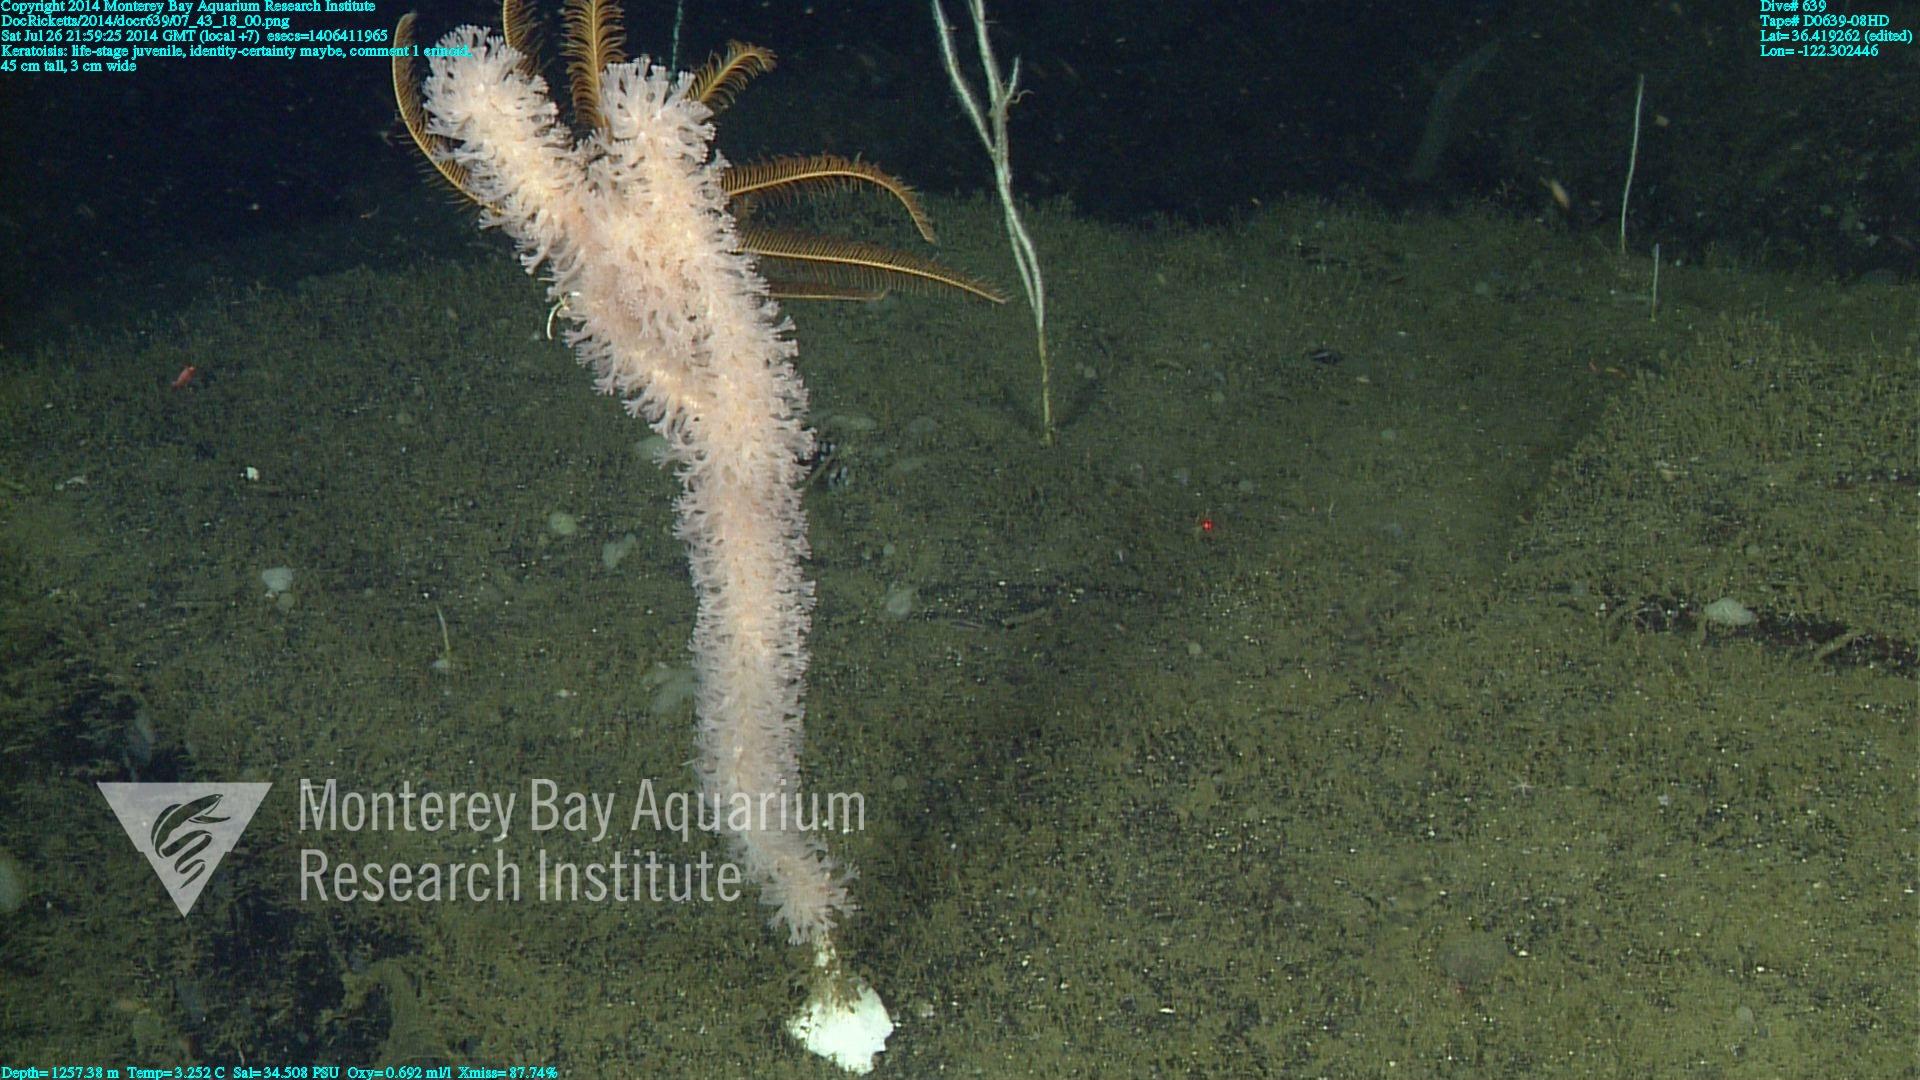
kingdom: Animalia
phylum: Cnidaria
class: Anthozoa
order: Scleralcyonacea
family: Keratoisididae
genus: Keratoisis
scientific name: Keratoisis
